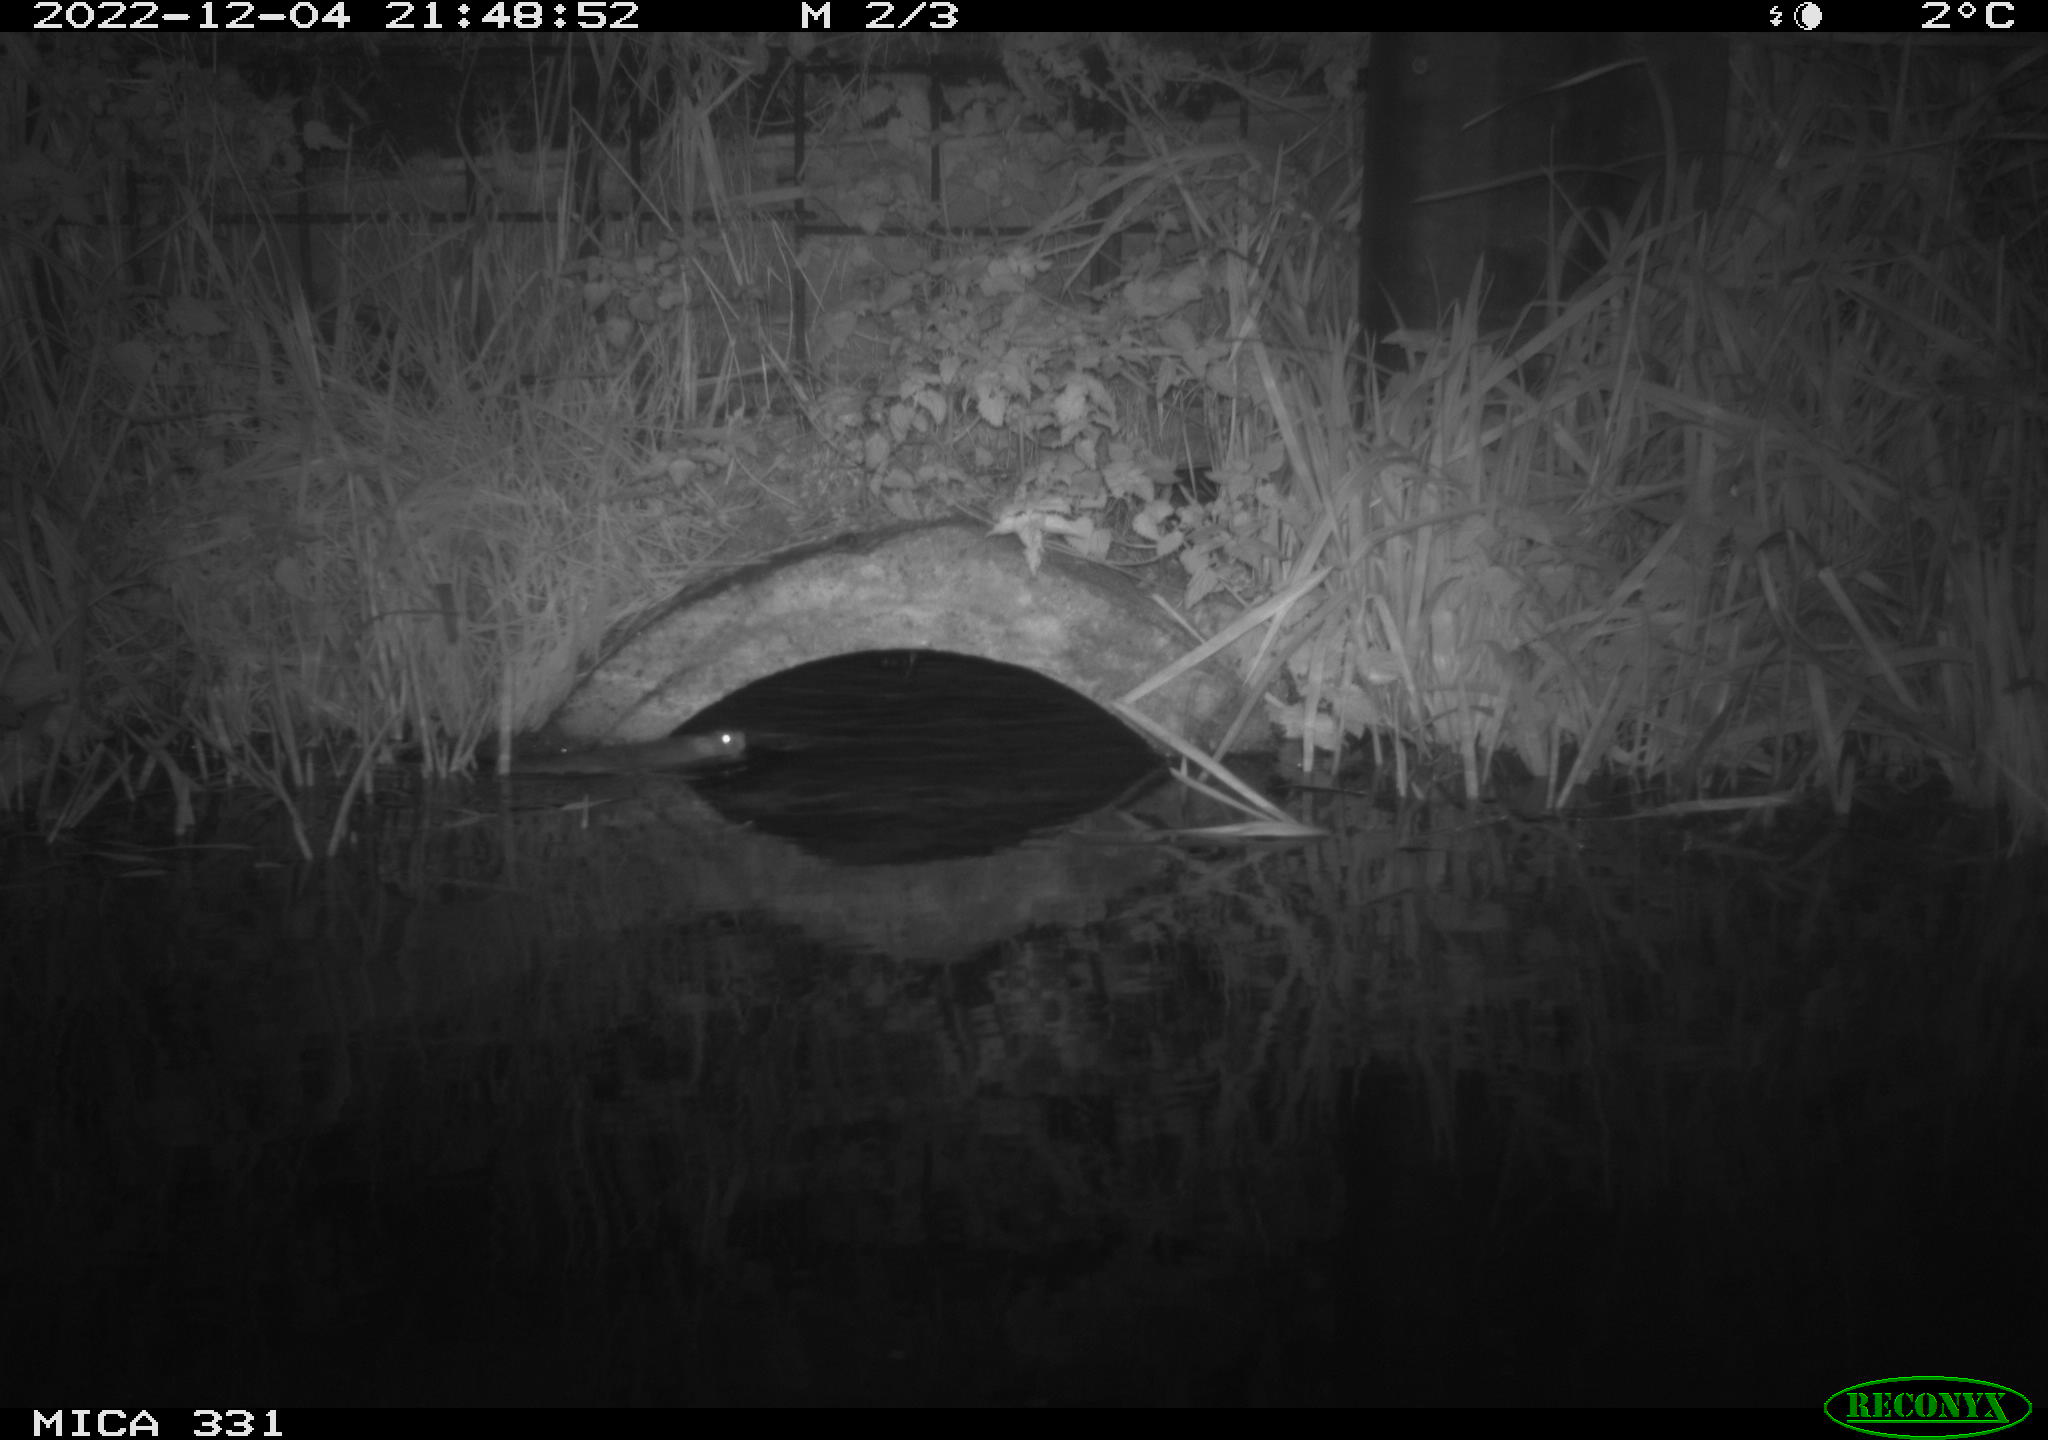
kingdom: Animalia
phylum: Chordata
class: Mammalia
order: Rodentia
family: Muridae
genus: Rattus
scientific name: Rattus norvegicus
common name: Brown rat
